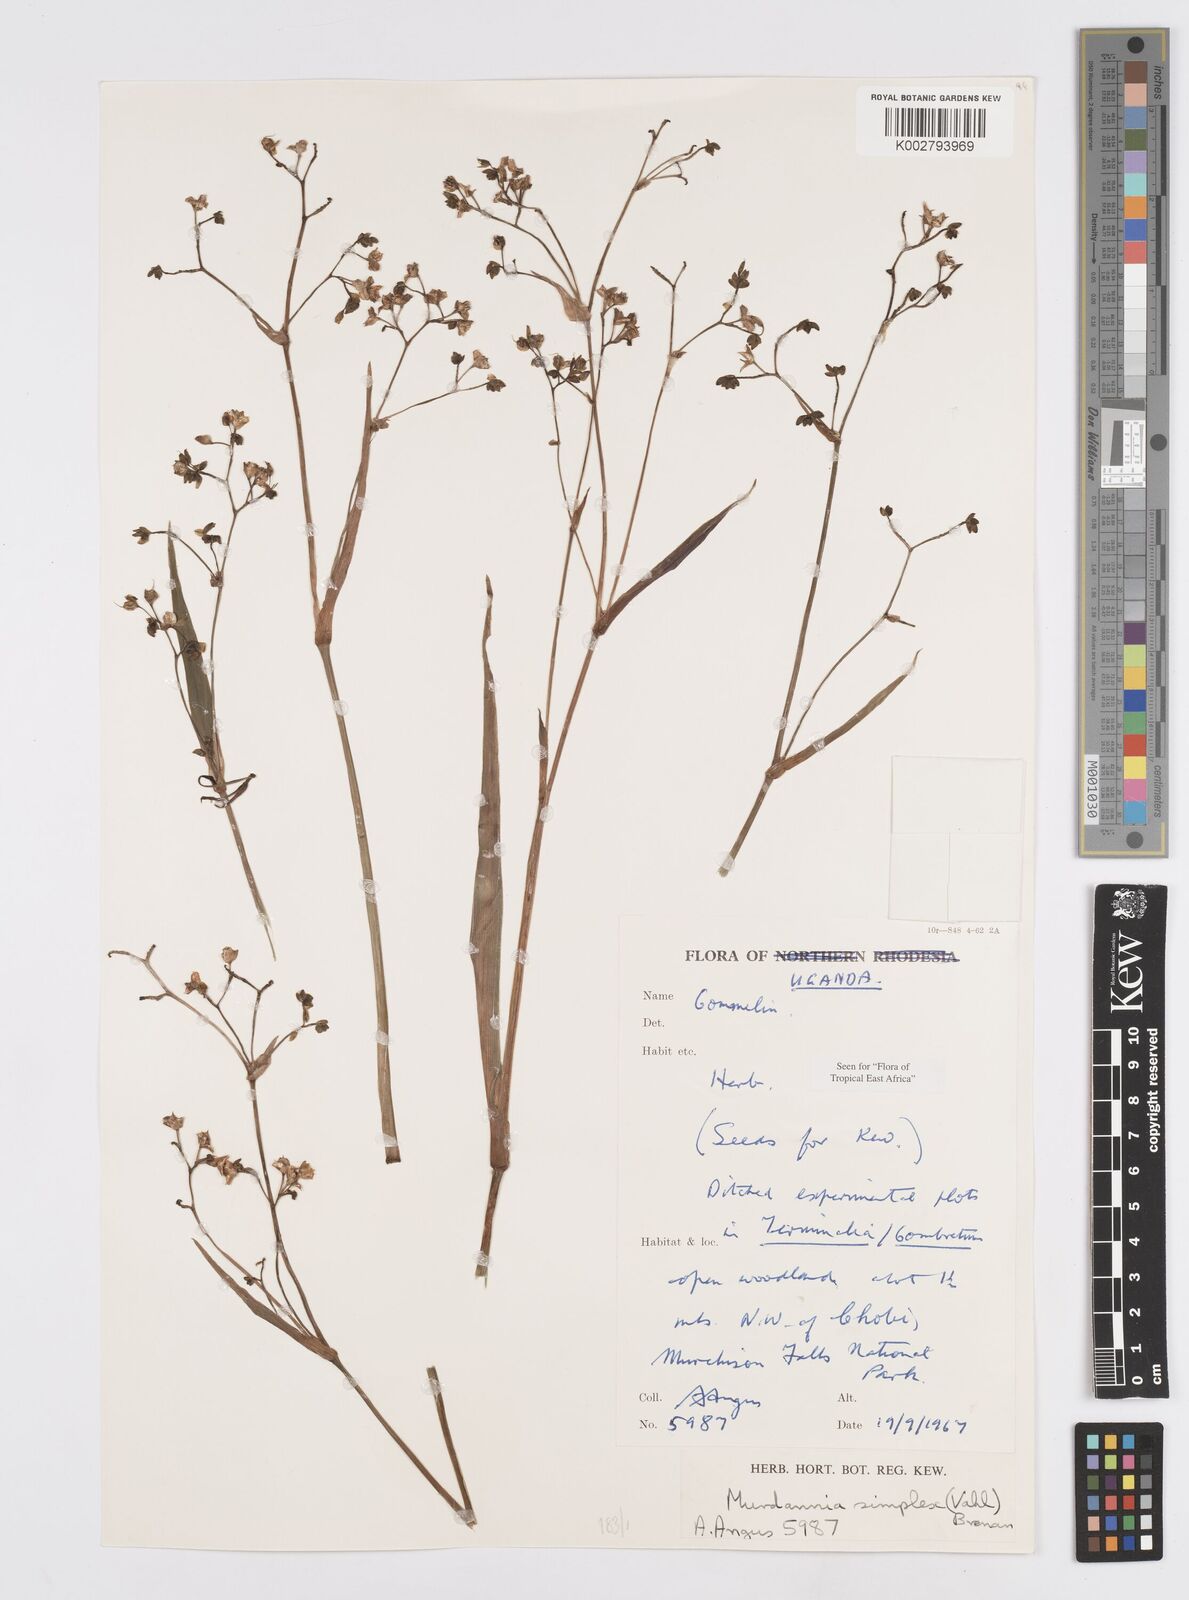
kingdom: Plantae
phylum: Tracheophyta
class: Liliopsida
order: Commelinales
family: Commelinaceae
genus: Murdannia
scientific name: Murdannia simplex
